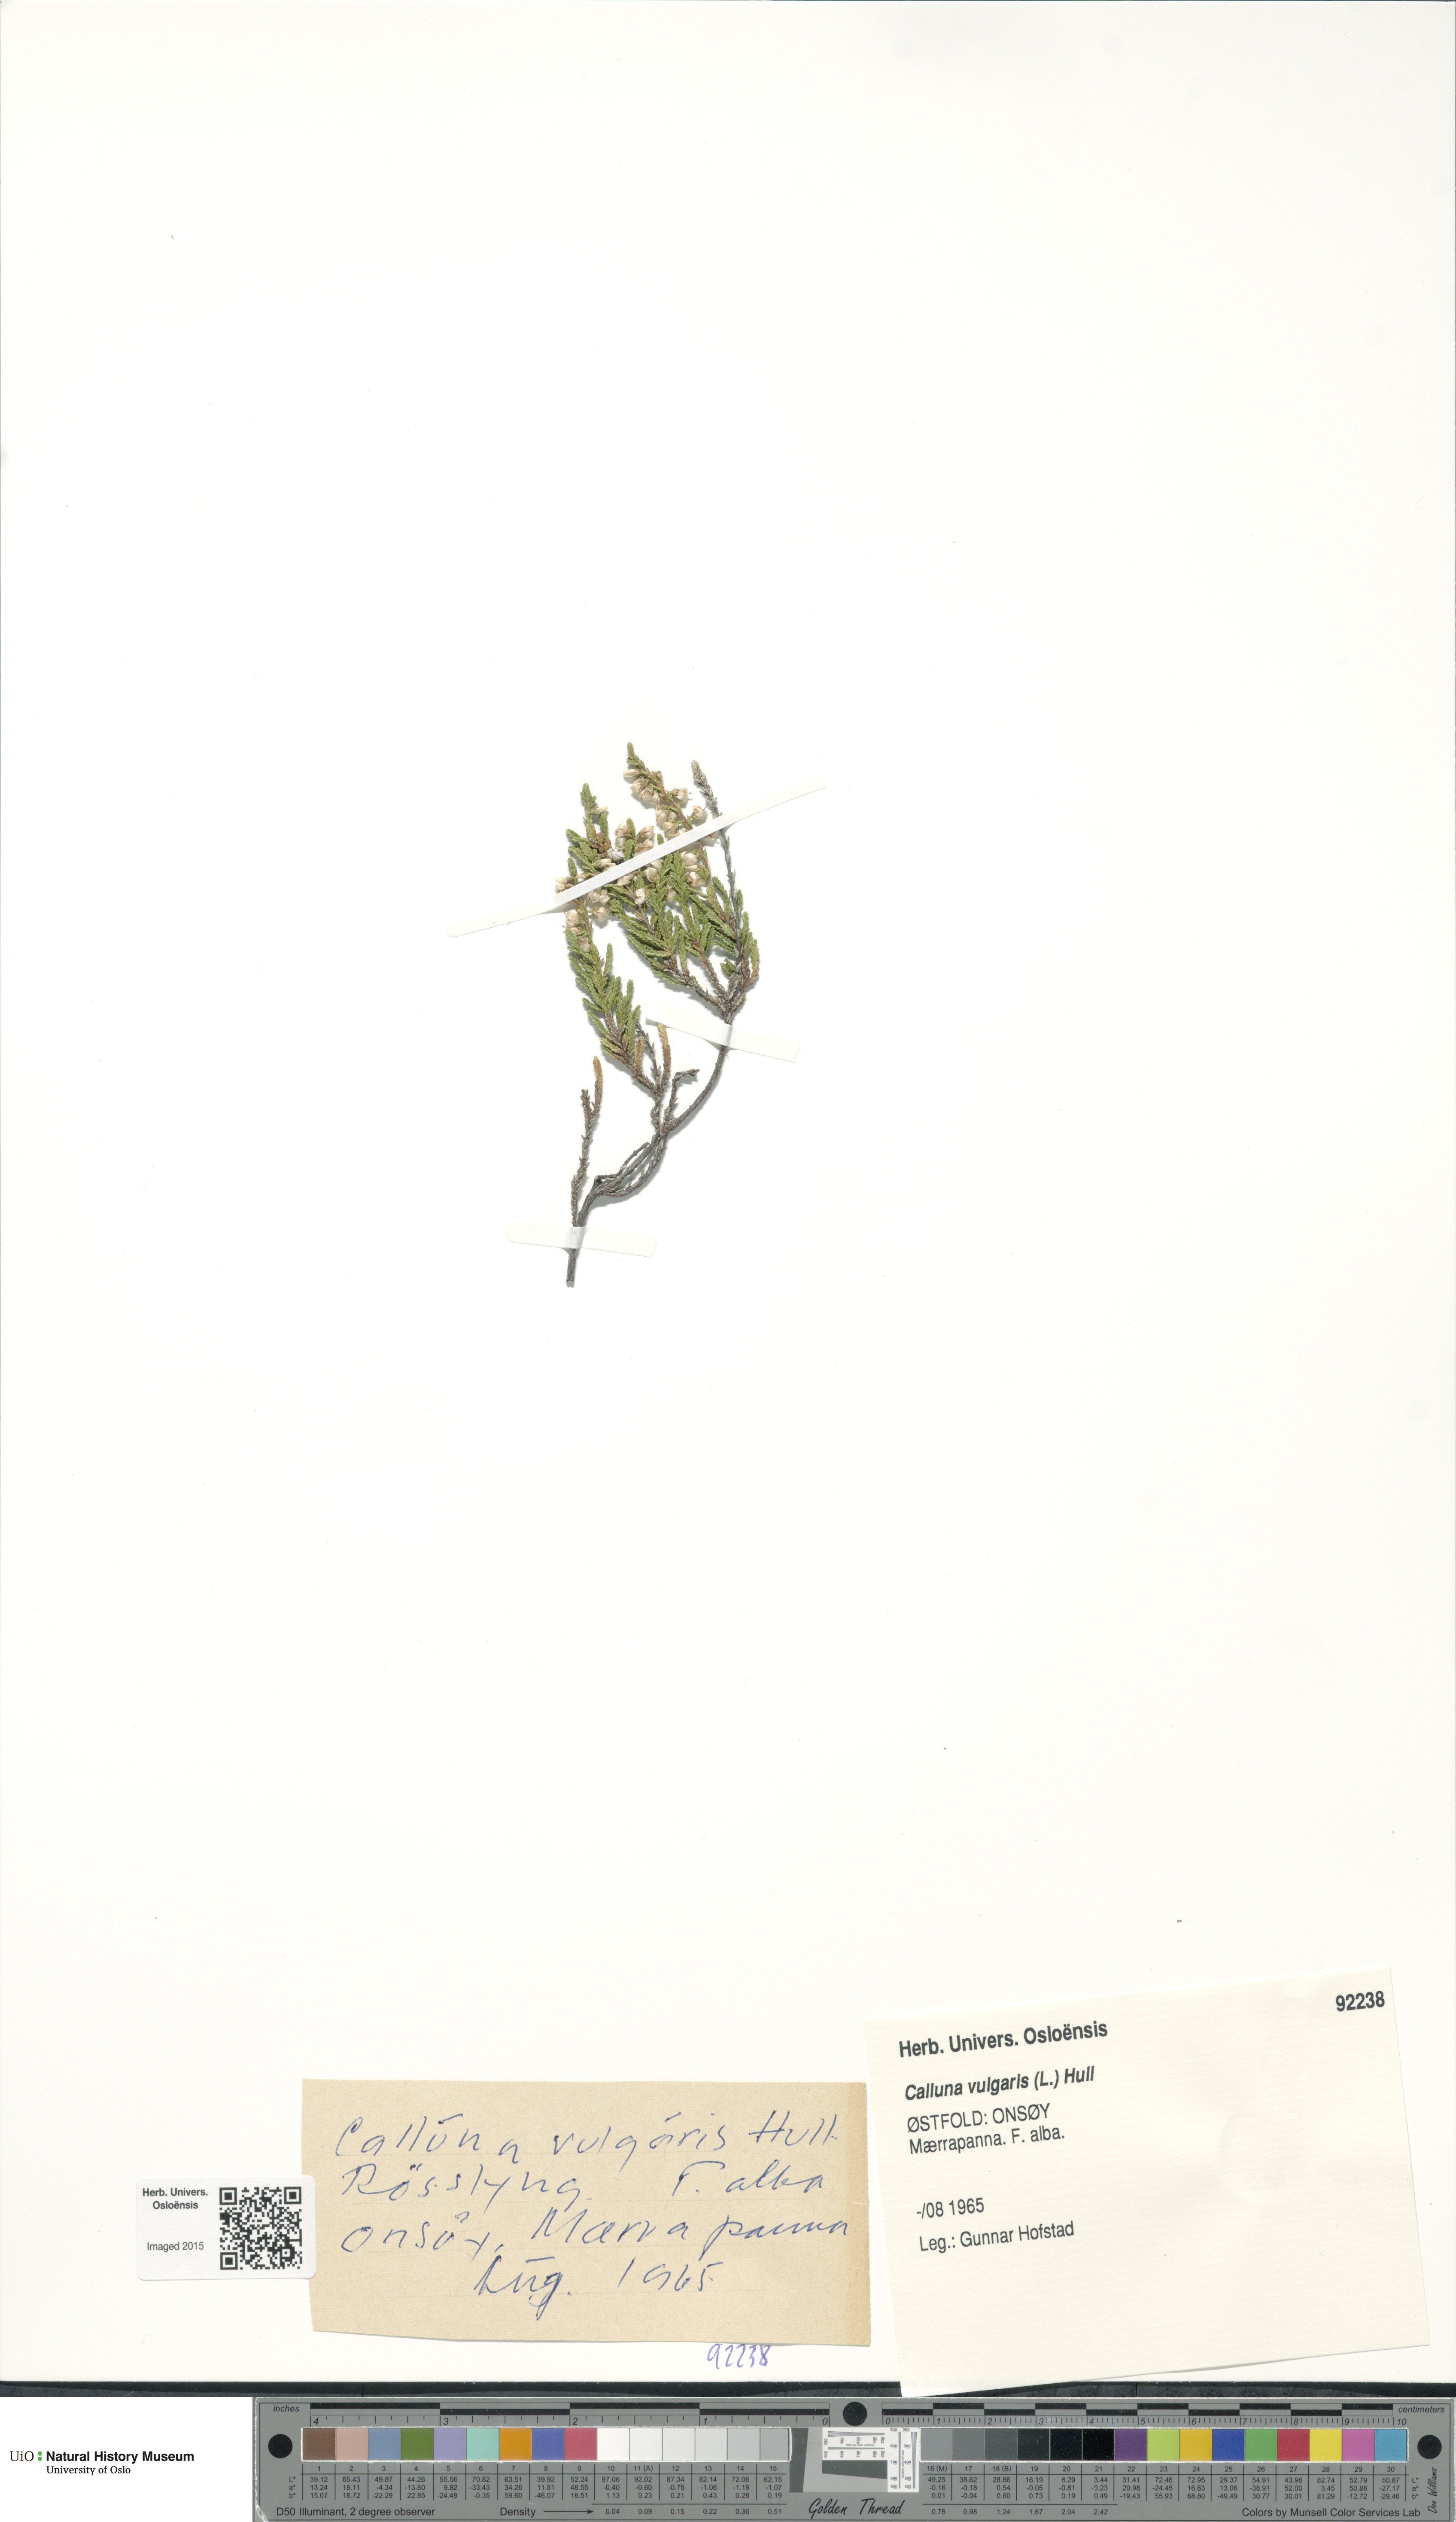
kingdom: Plantae
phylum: Tracheophyta
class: Magnoliopsida
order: Ericales
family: Ericaceae
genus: Calluna
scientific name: Calluna vulgaris
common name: Heather
